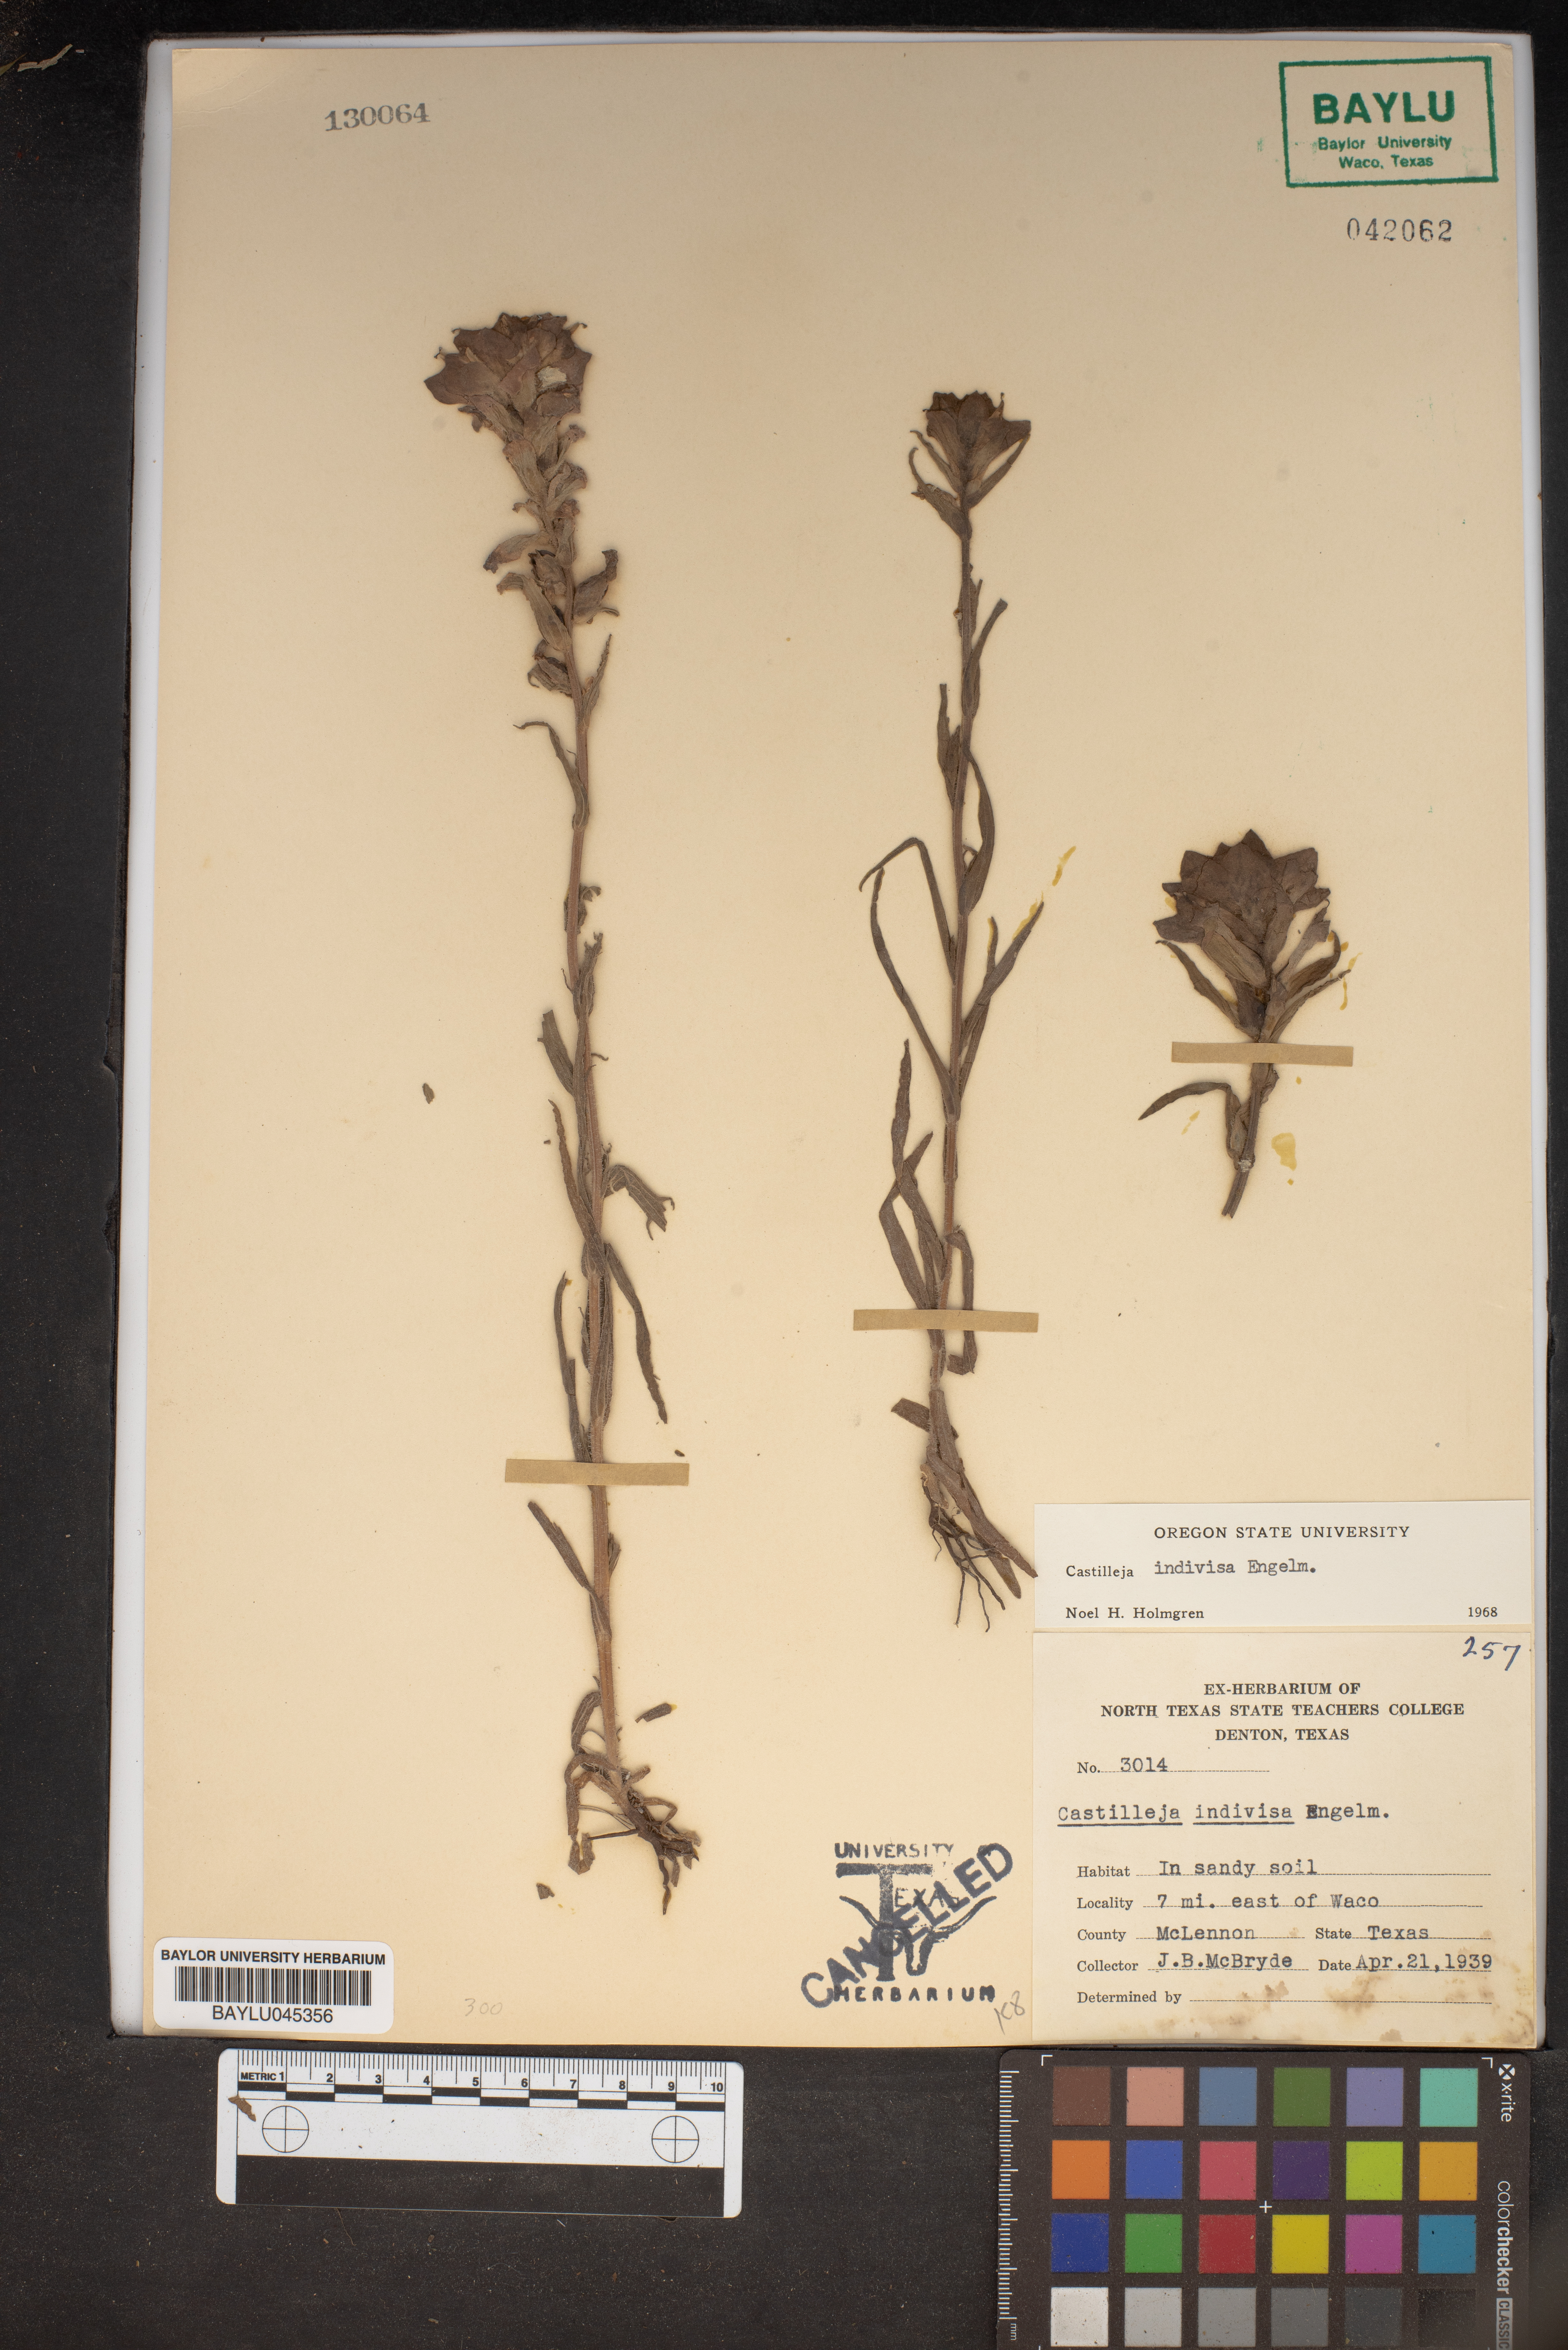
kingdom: Plantae
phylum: Tracheophyta
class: Magnoliopsida
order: Lamiales
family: Orobanchaceae
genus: Castilleja
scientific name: Castilleja indivisa
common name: Texas paintbrush
